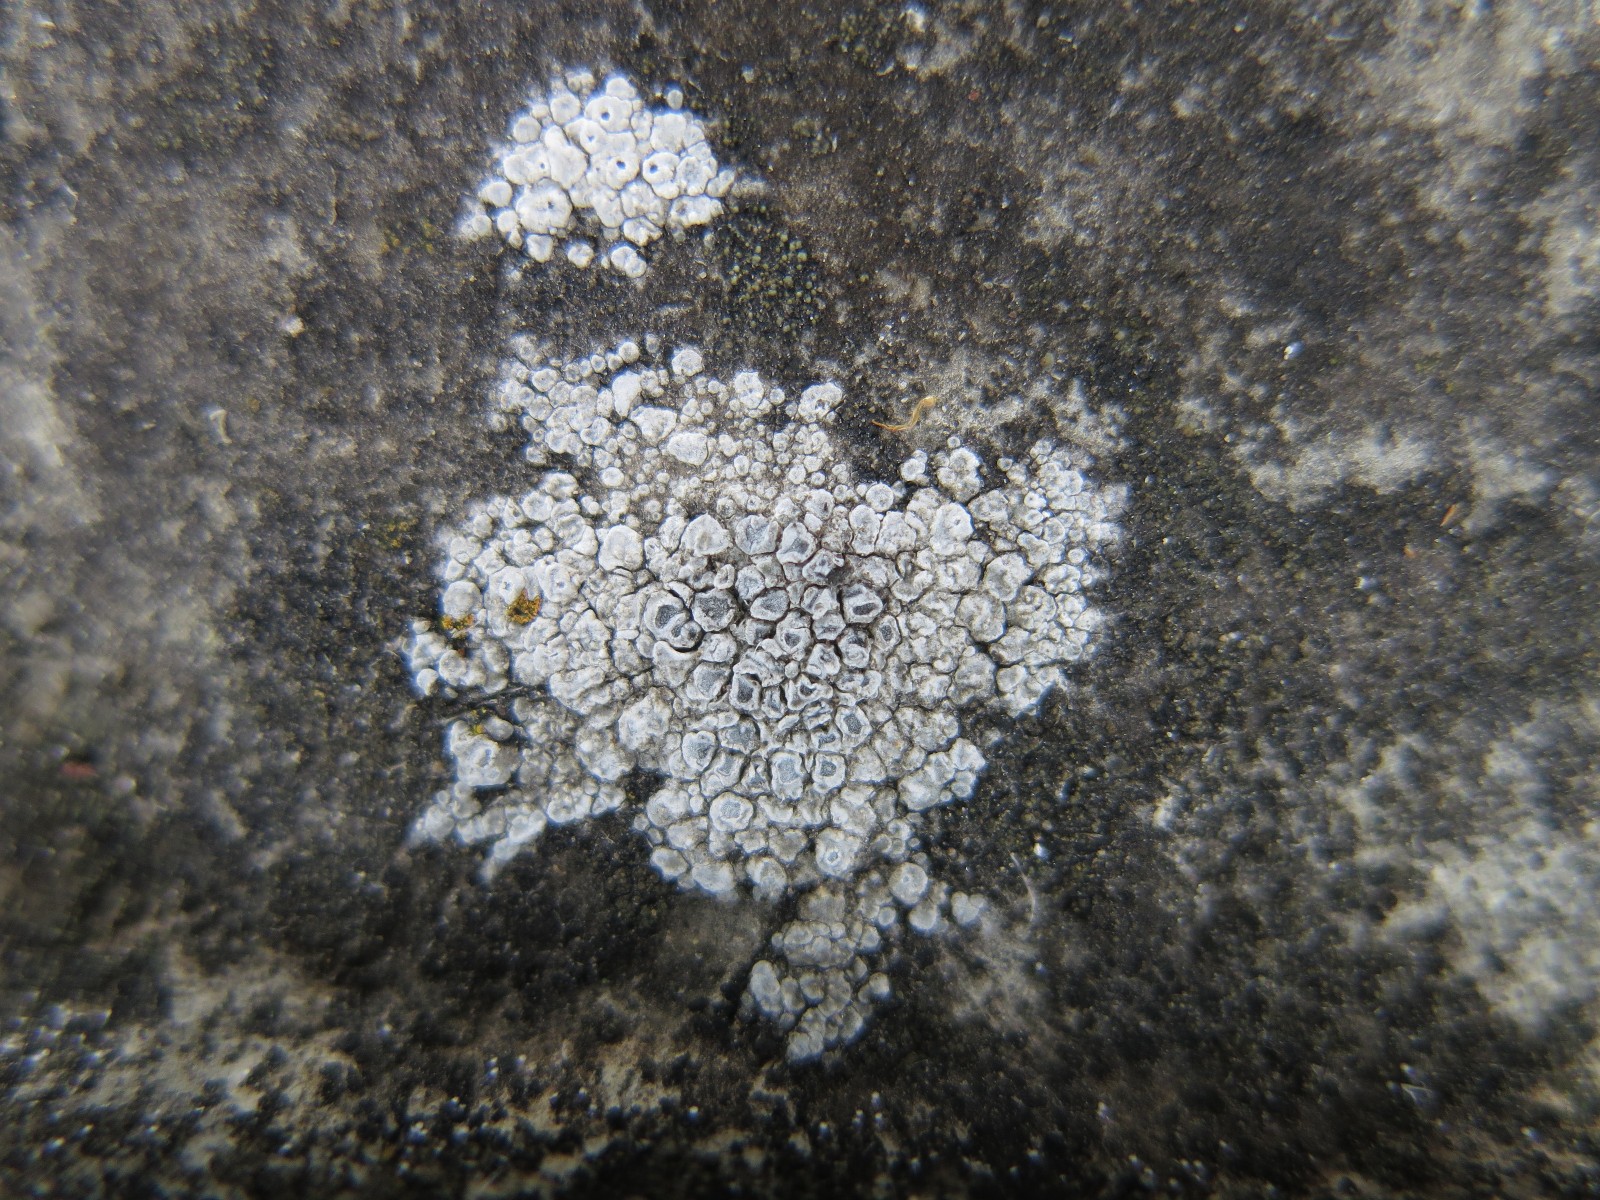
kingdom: Fungi
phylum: Ascomycota
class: Lecanoromycetes
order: Pertusariales
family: Megasporaceae
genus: Circinaria
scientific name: Circinaria contorta
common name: indviklet hulskivelav
